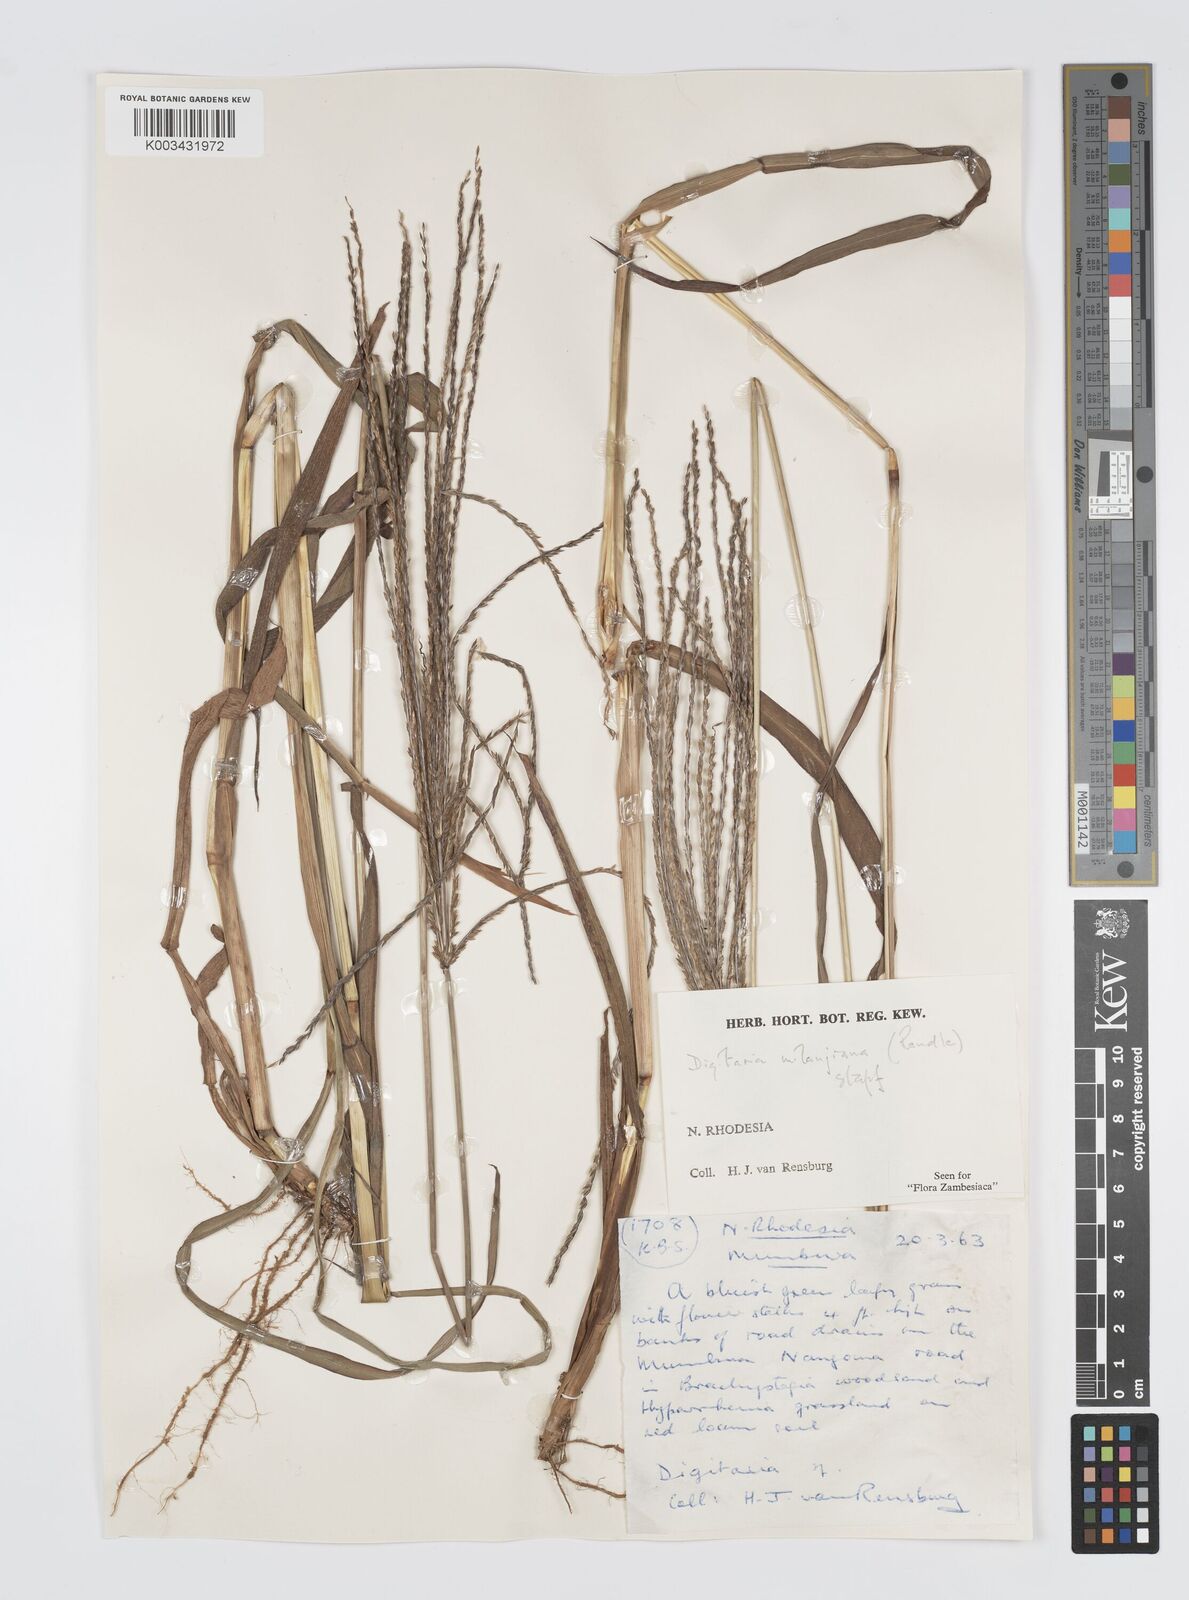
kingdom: Plantae
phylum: Tracheophyta
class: Liliopsida
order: Poales
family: Poaceae
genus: Digitaria
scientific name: Digitaria milanjiana
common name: Madagascar crabgrass
